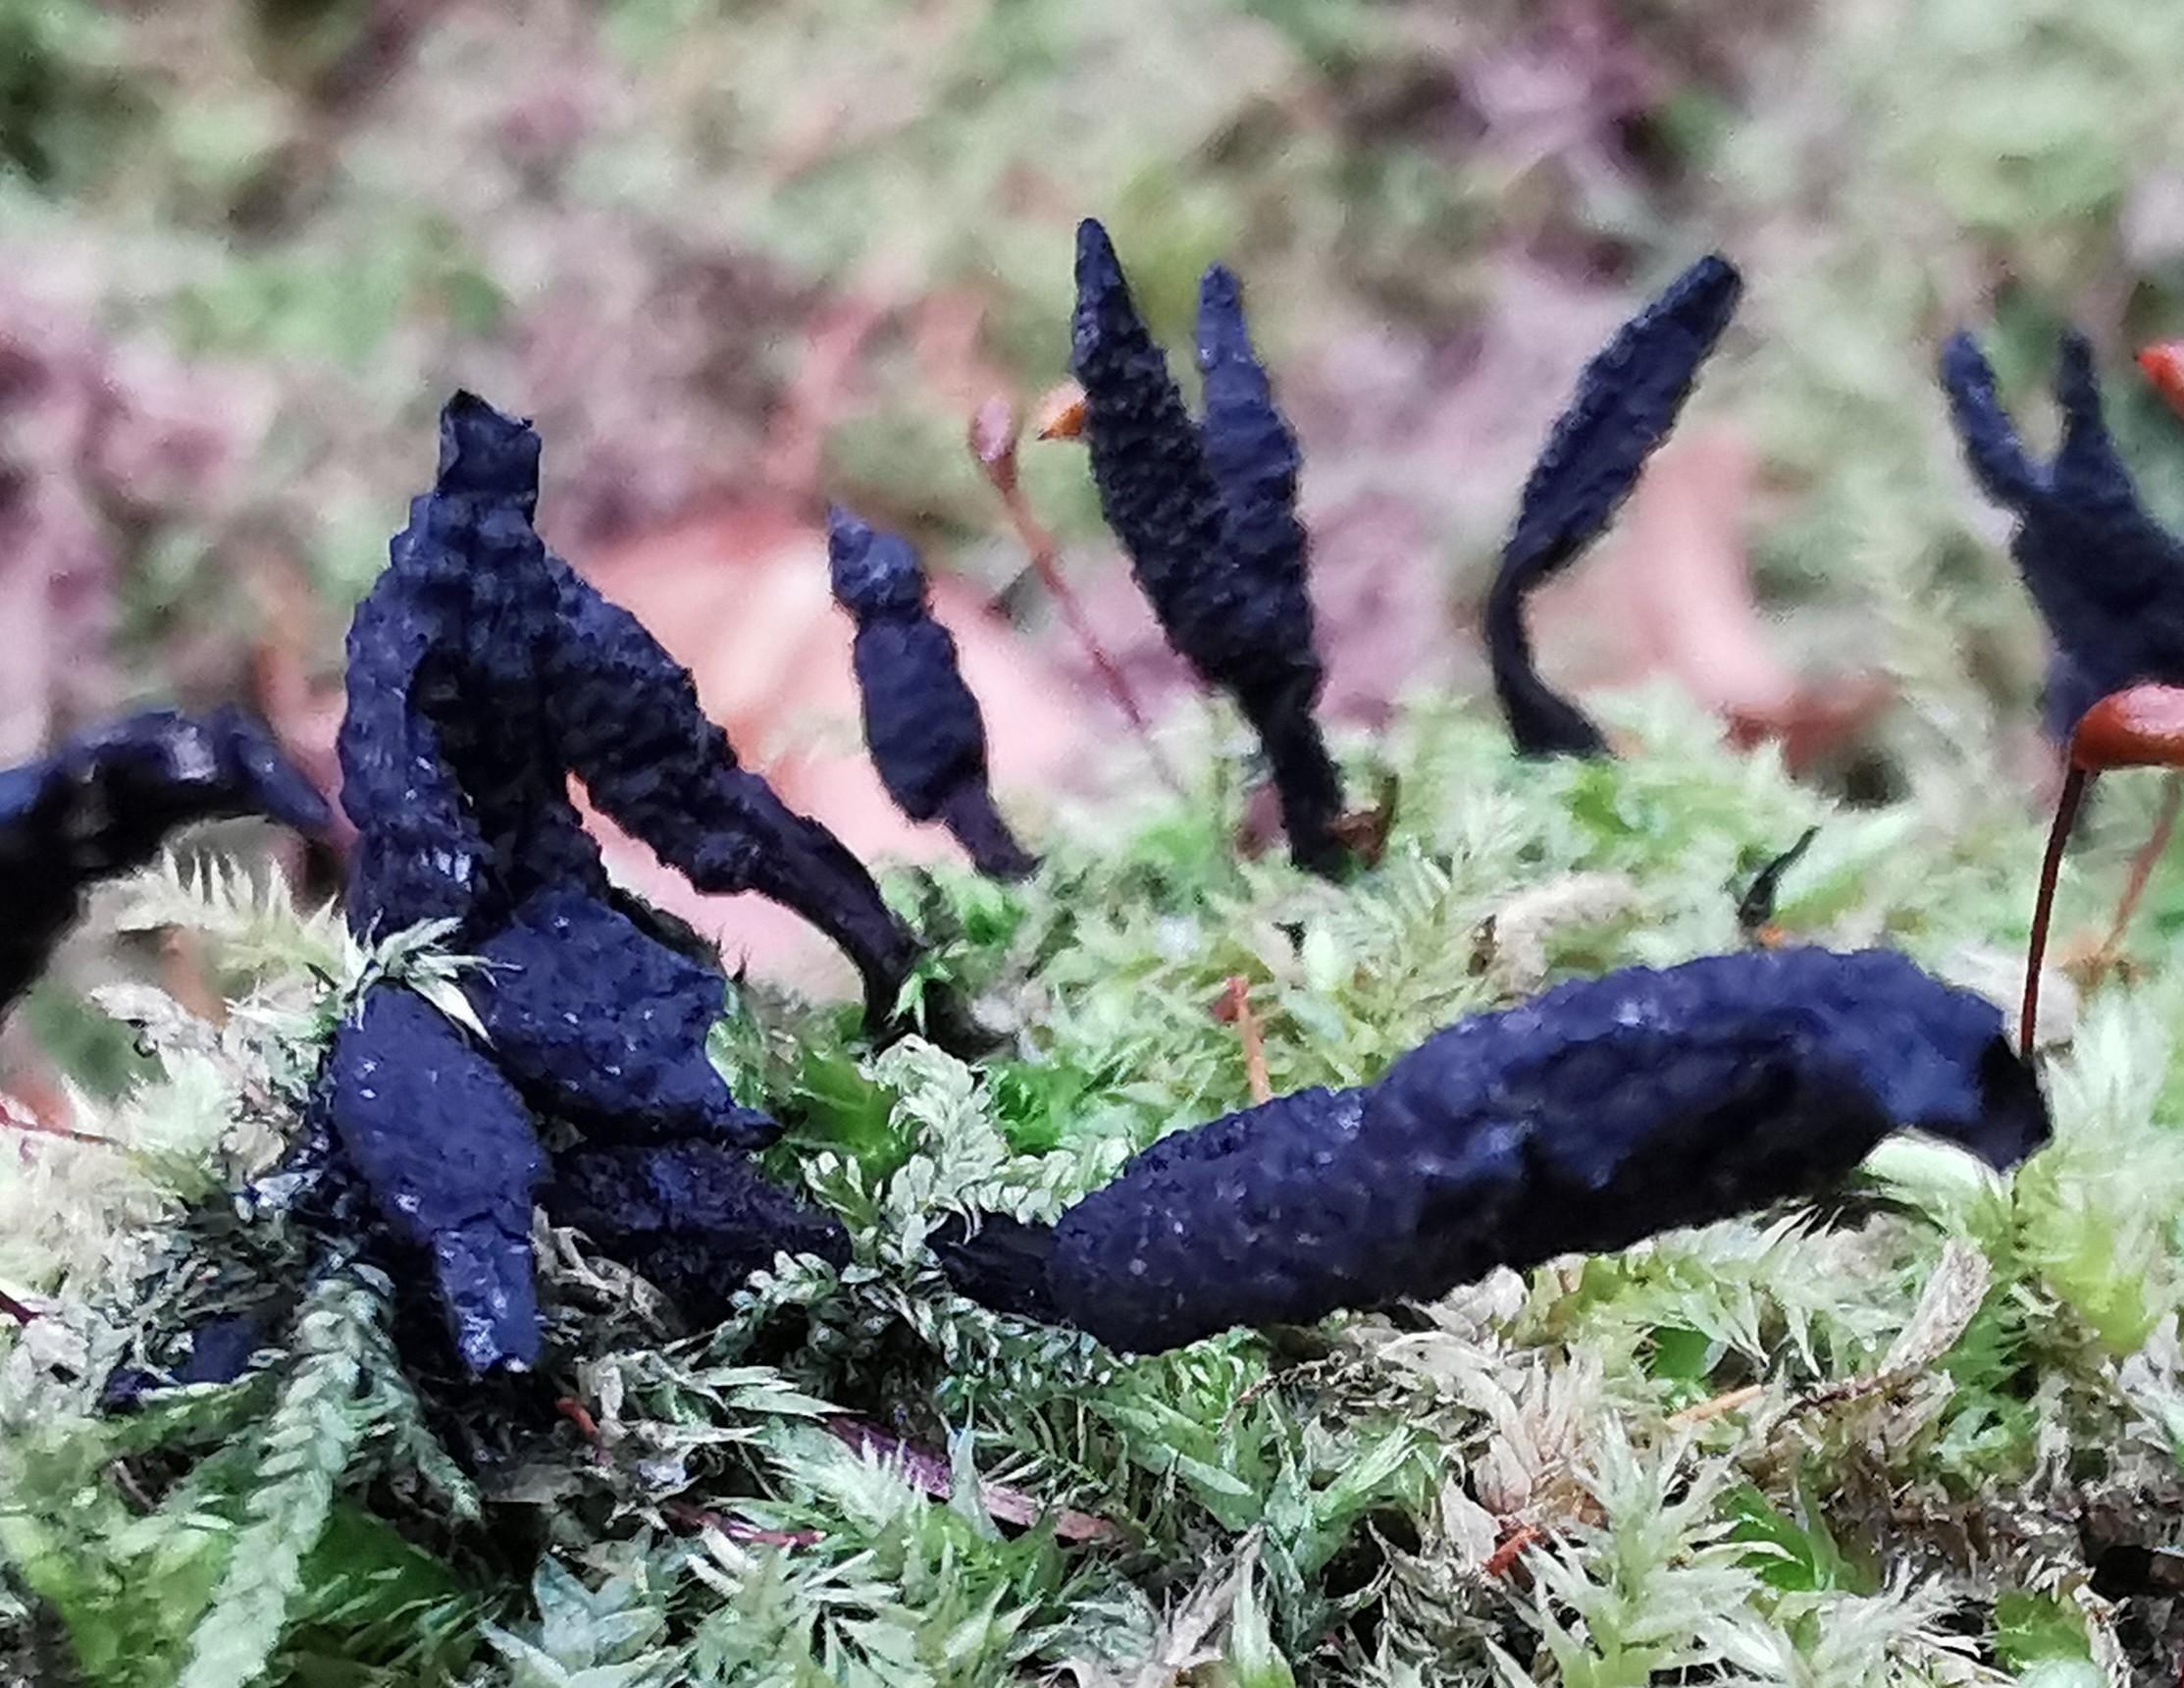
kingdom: Fungi
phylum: Ascomycota
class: Sordariomycetes
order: Xylariales
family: Xylariaceae
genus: Xylaria
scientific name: Xylaria hypoxylon
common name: grenet stødsvamp
